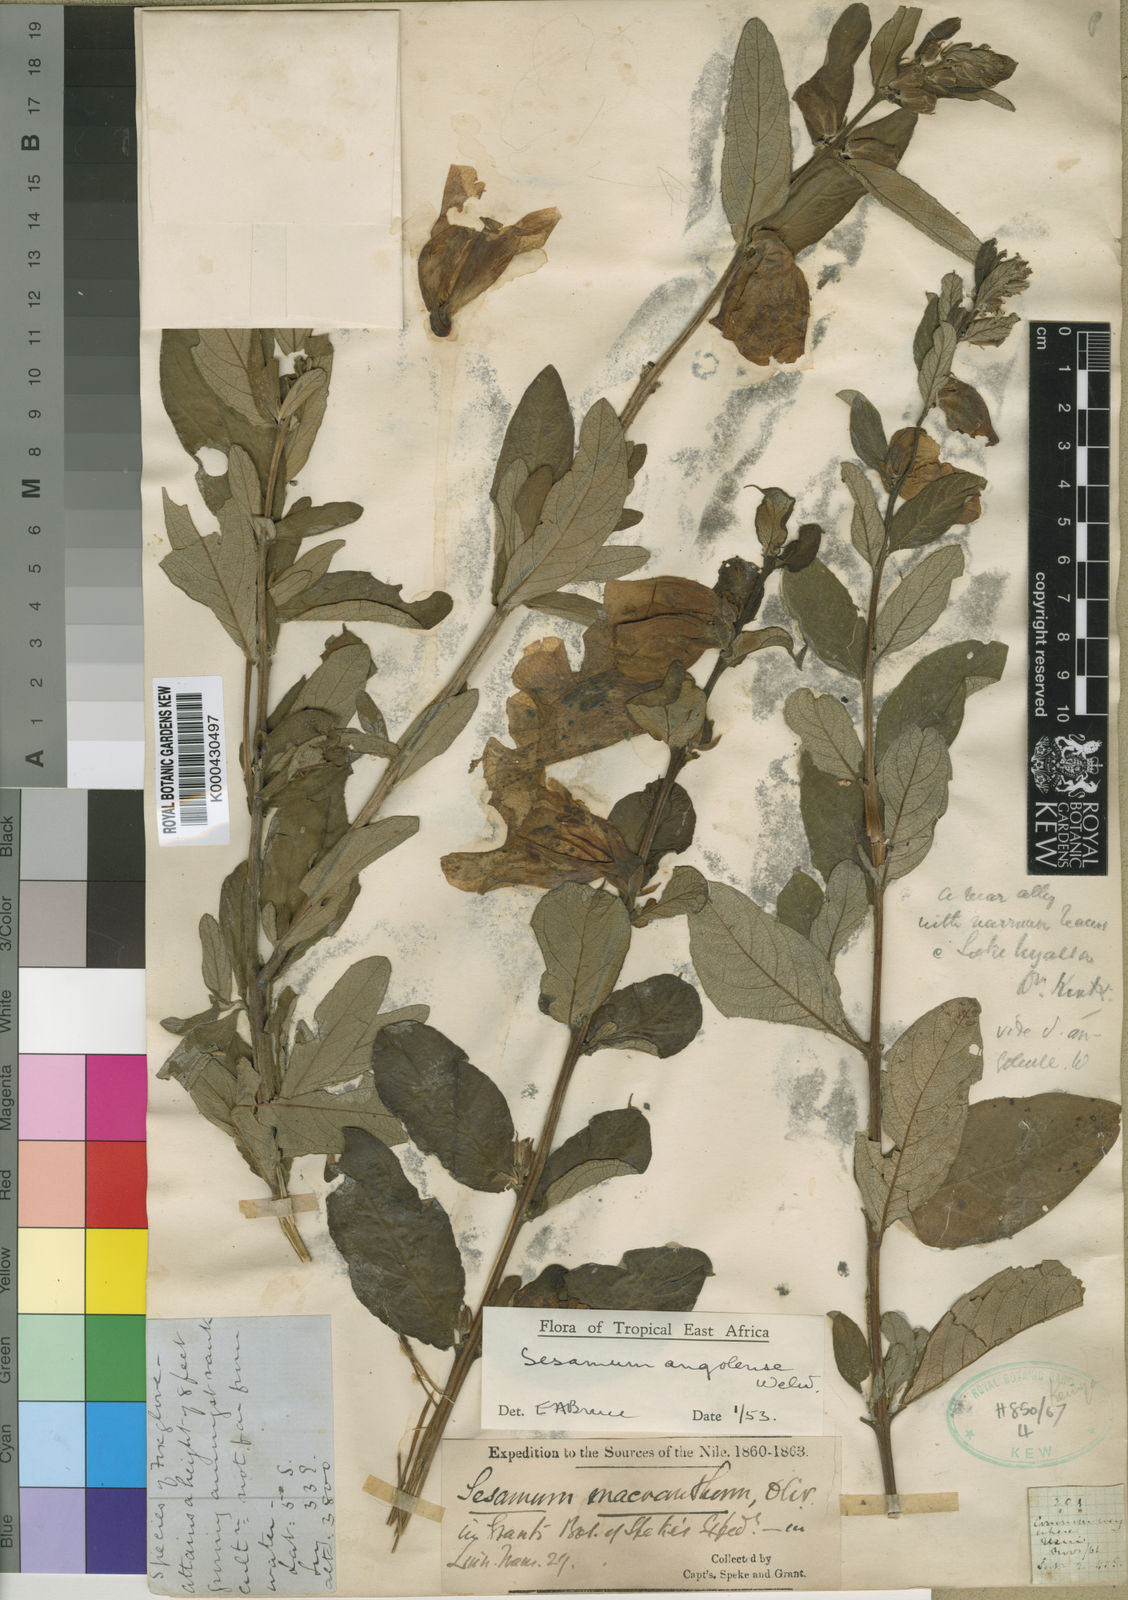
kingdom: Plantae
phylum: Tracheophyta
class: Magnoliopsida
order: Lamiales
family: Pedaliaceae
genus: Sesamum
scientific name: Sesamum angolense
